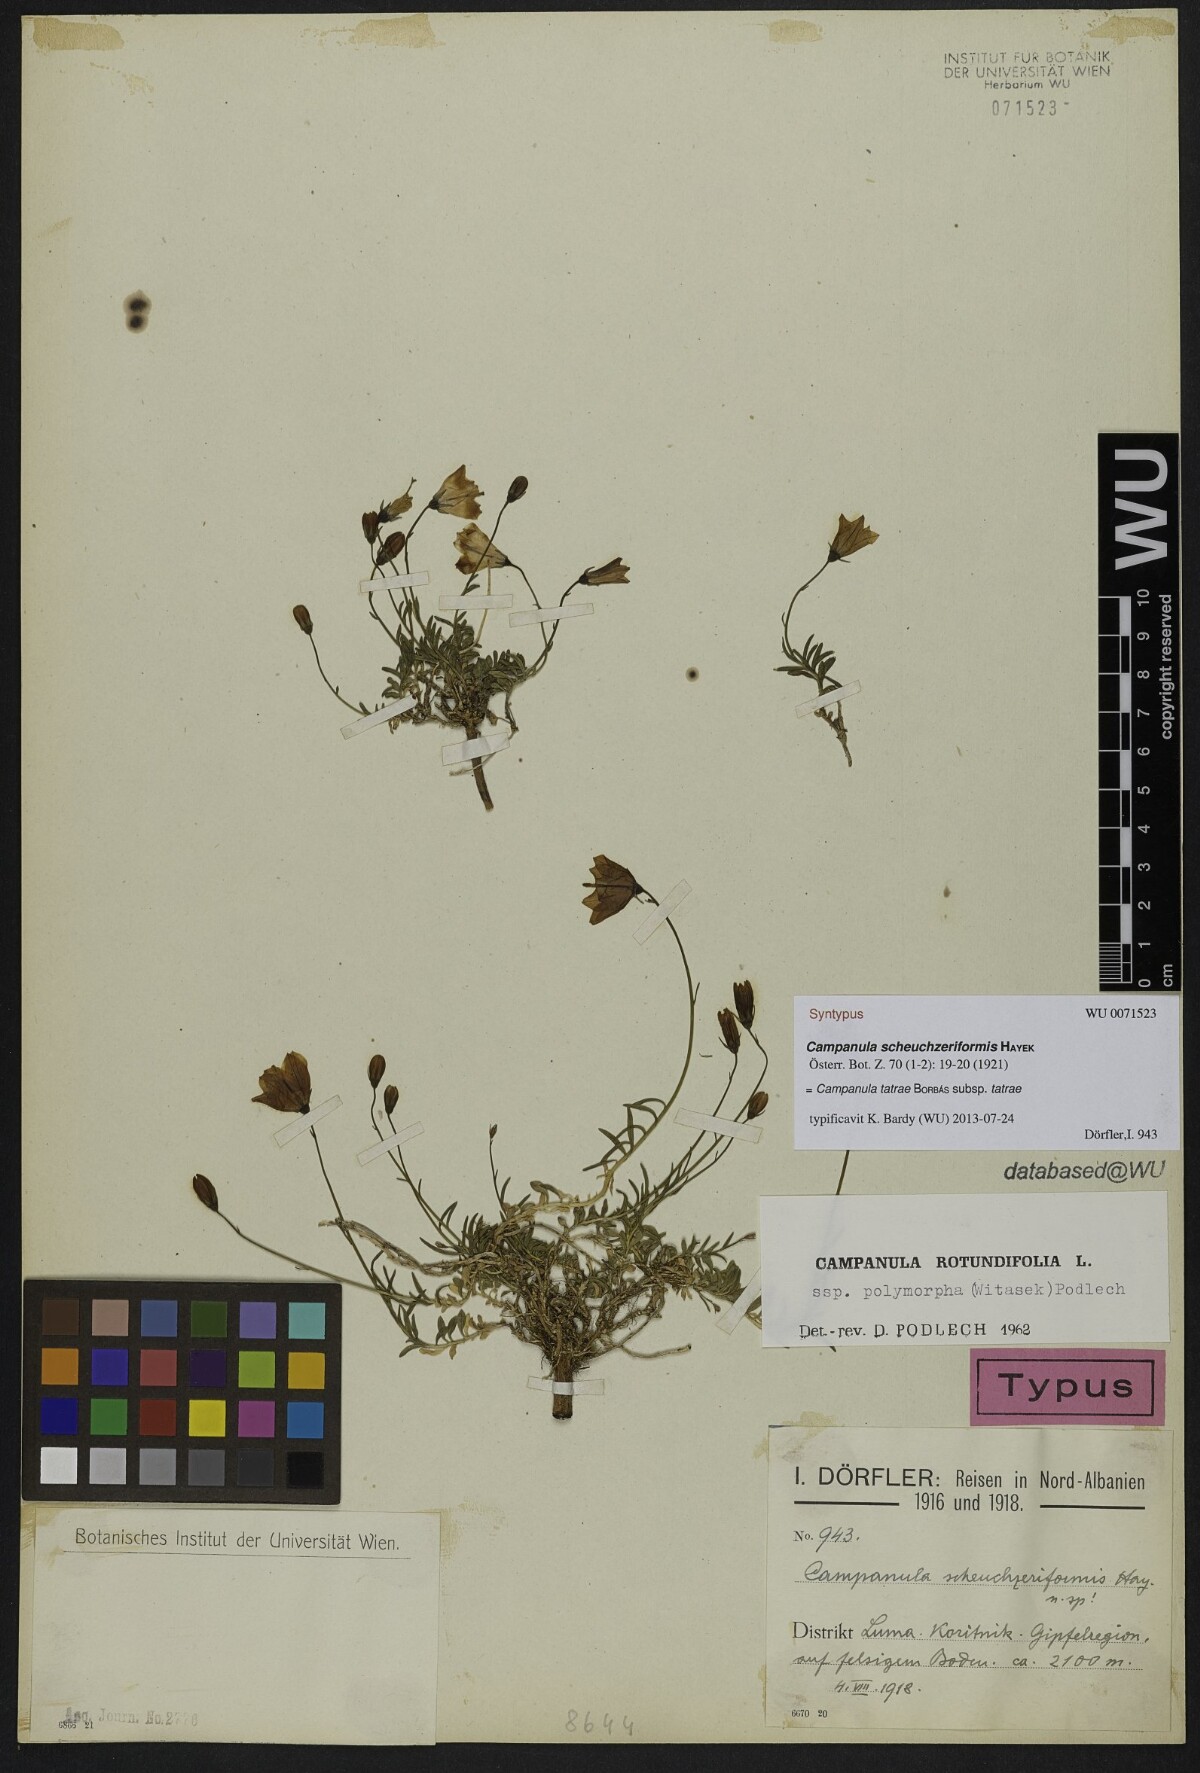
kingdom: Plantae
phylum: Tracheophyta
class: Magnoliopsida
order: Asterales
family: Campanulaceae
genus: Campanula
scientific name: Campanula tatrae
